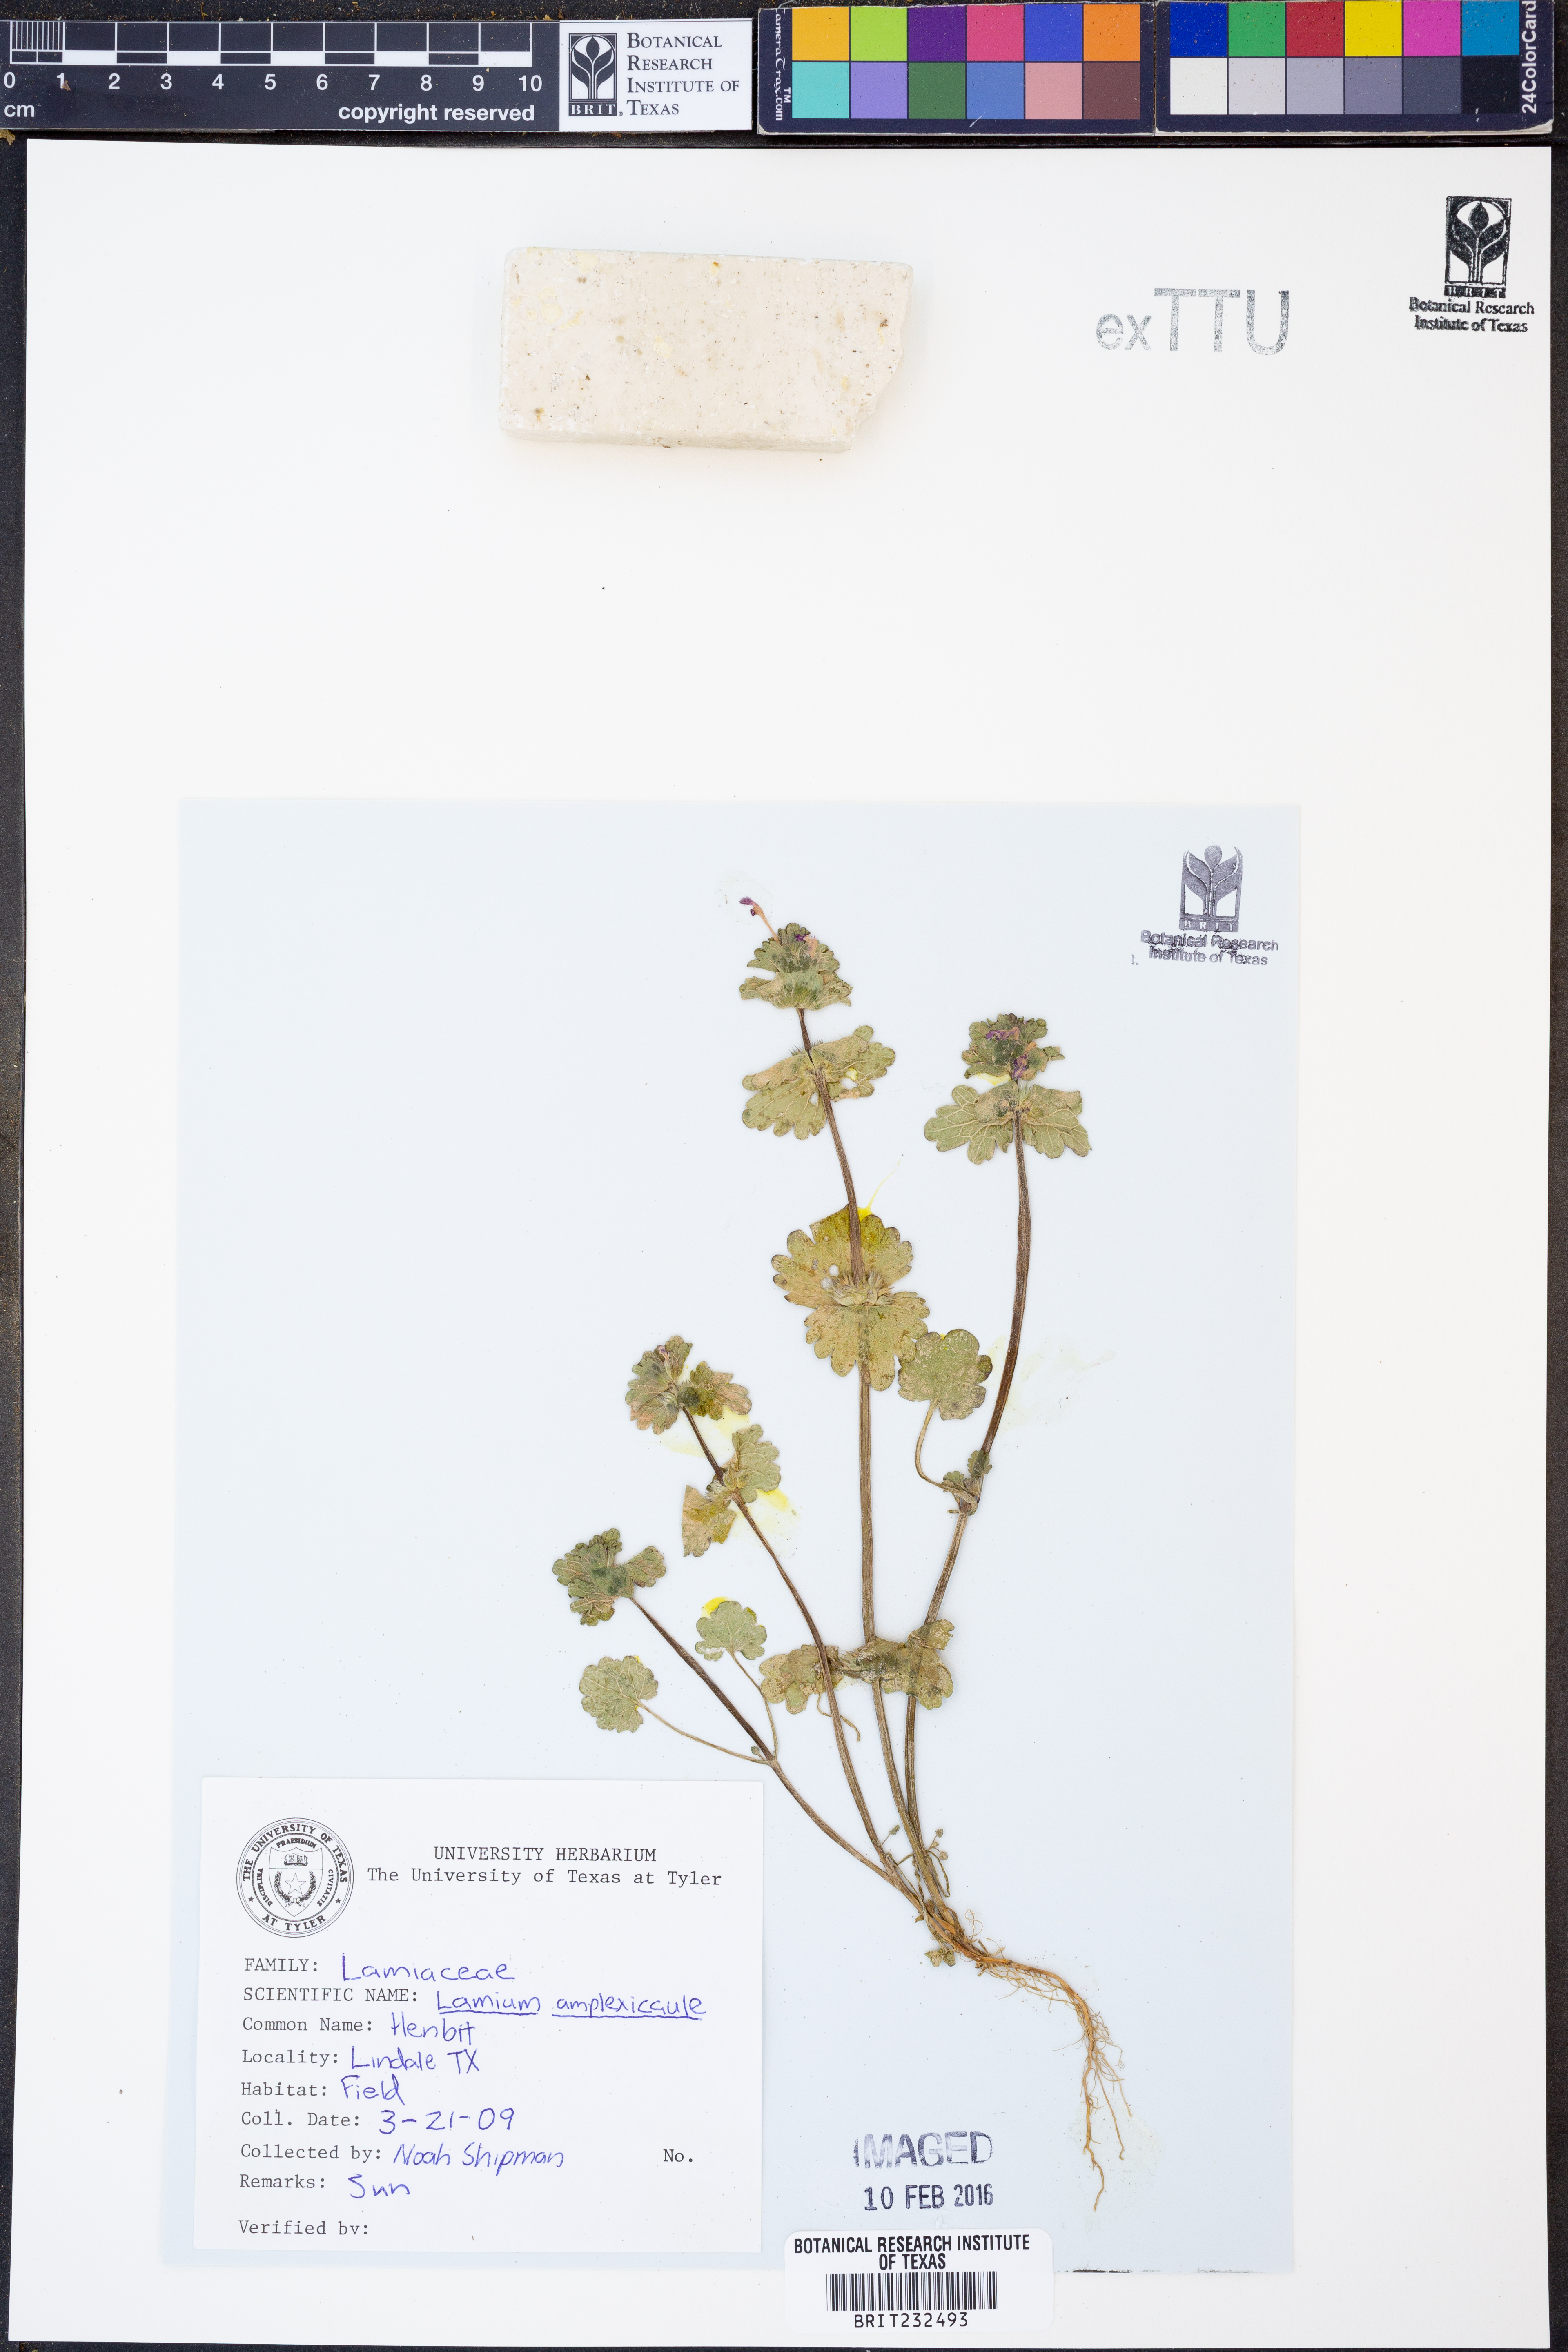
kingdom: Plantae
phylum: Tracheophyta
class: Magnoliopsida
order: Lamiales
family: Lamiaceae
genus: Lamium
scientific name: Lamium amplexicaule
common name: Henbit dead-nettle
